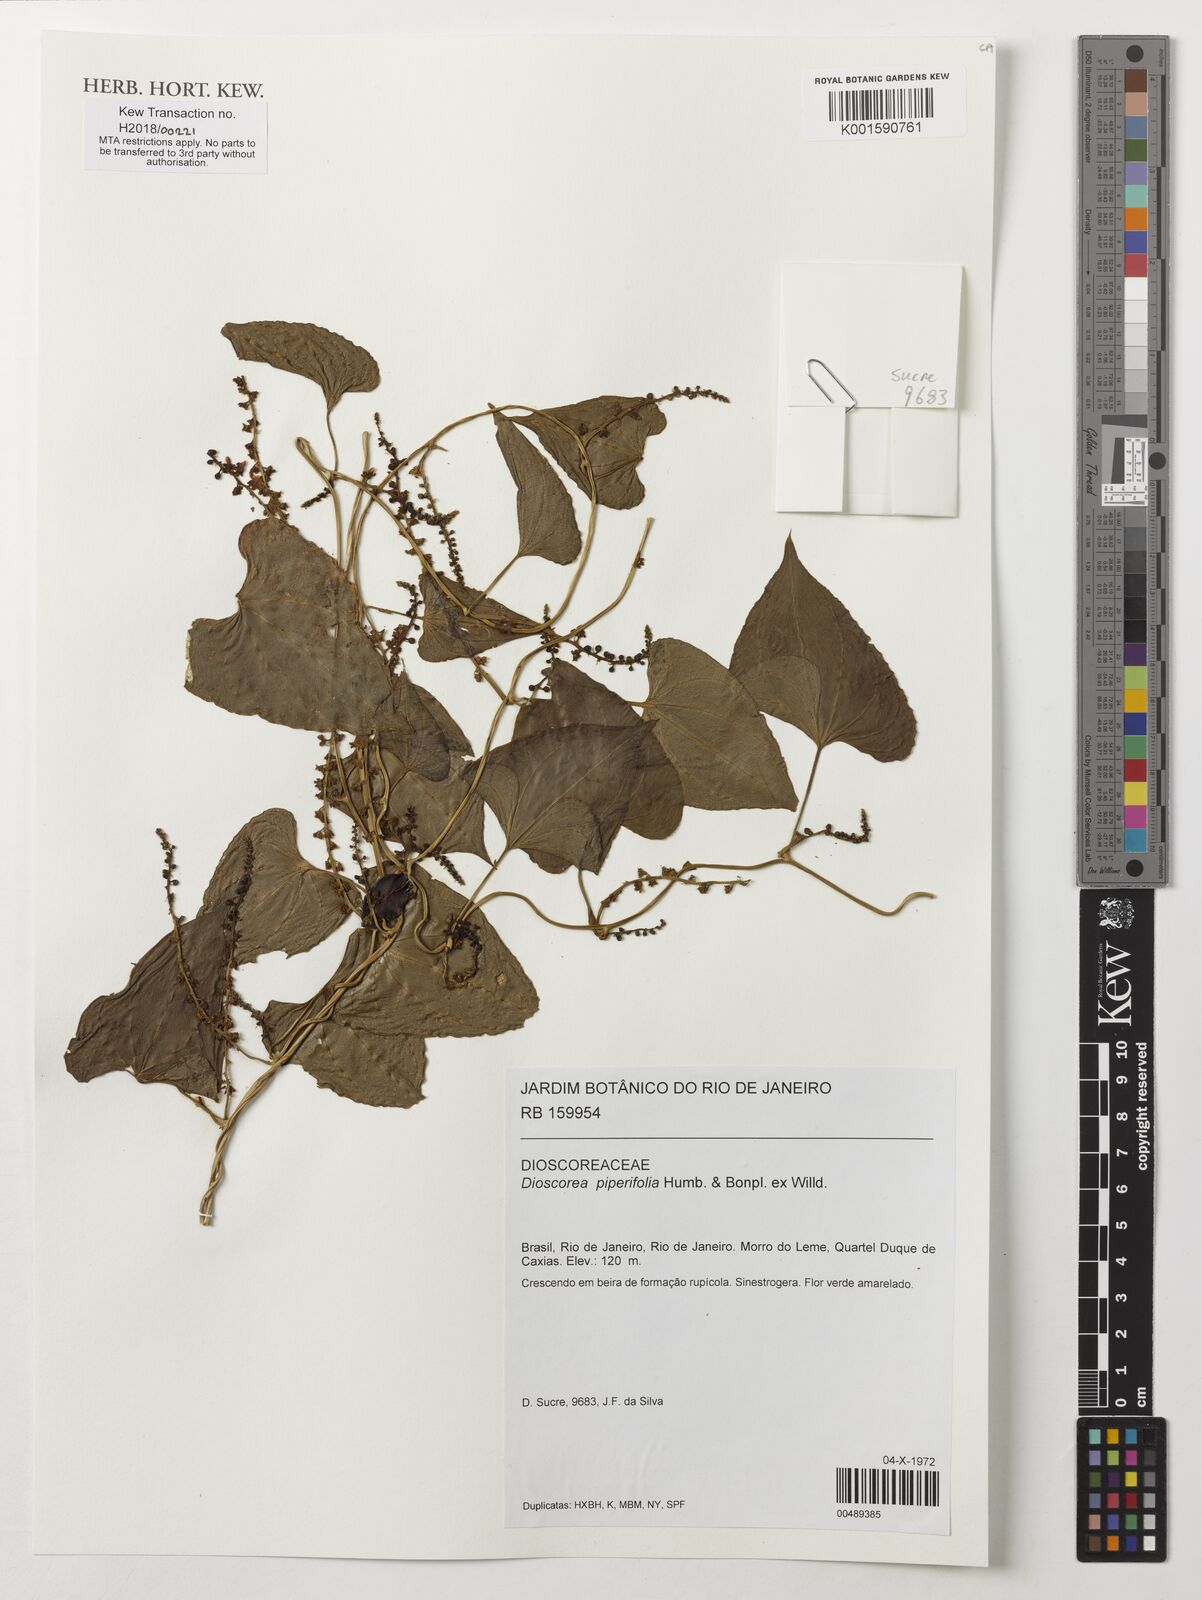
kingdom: Plantae
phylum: Tracheophyta
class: Liliopsida
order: Dioscoreales
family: Dioscoreaceae
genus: Dioscorea
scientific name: Dioscorea piperifolia
